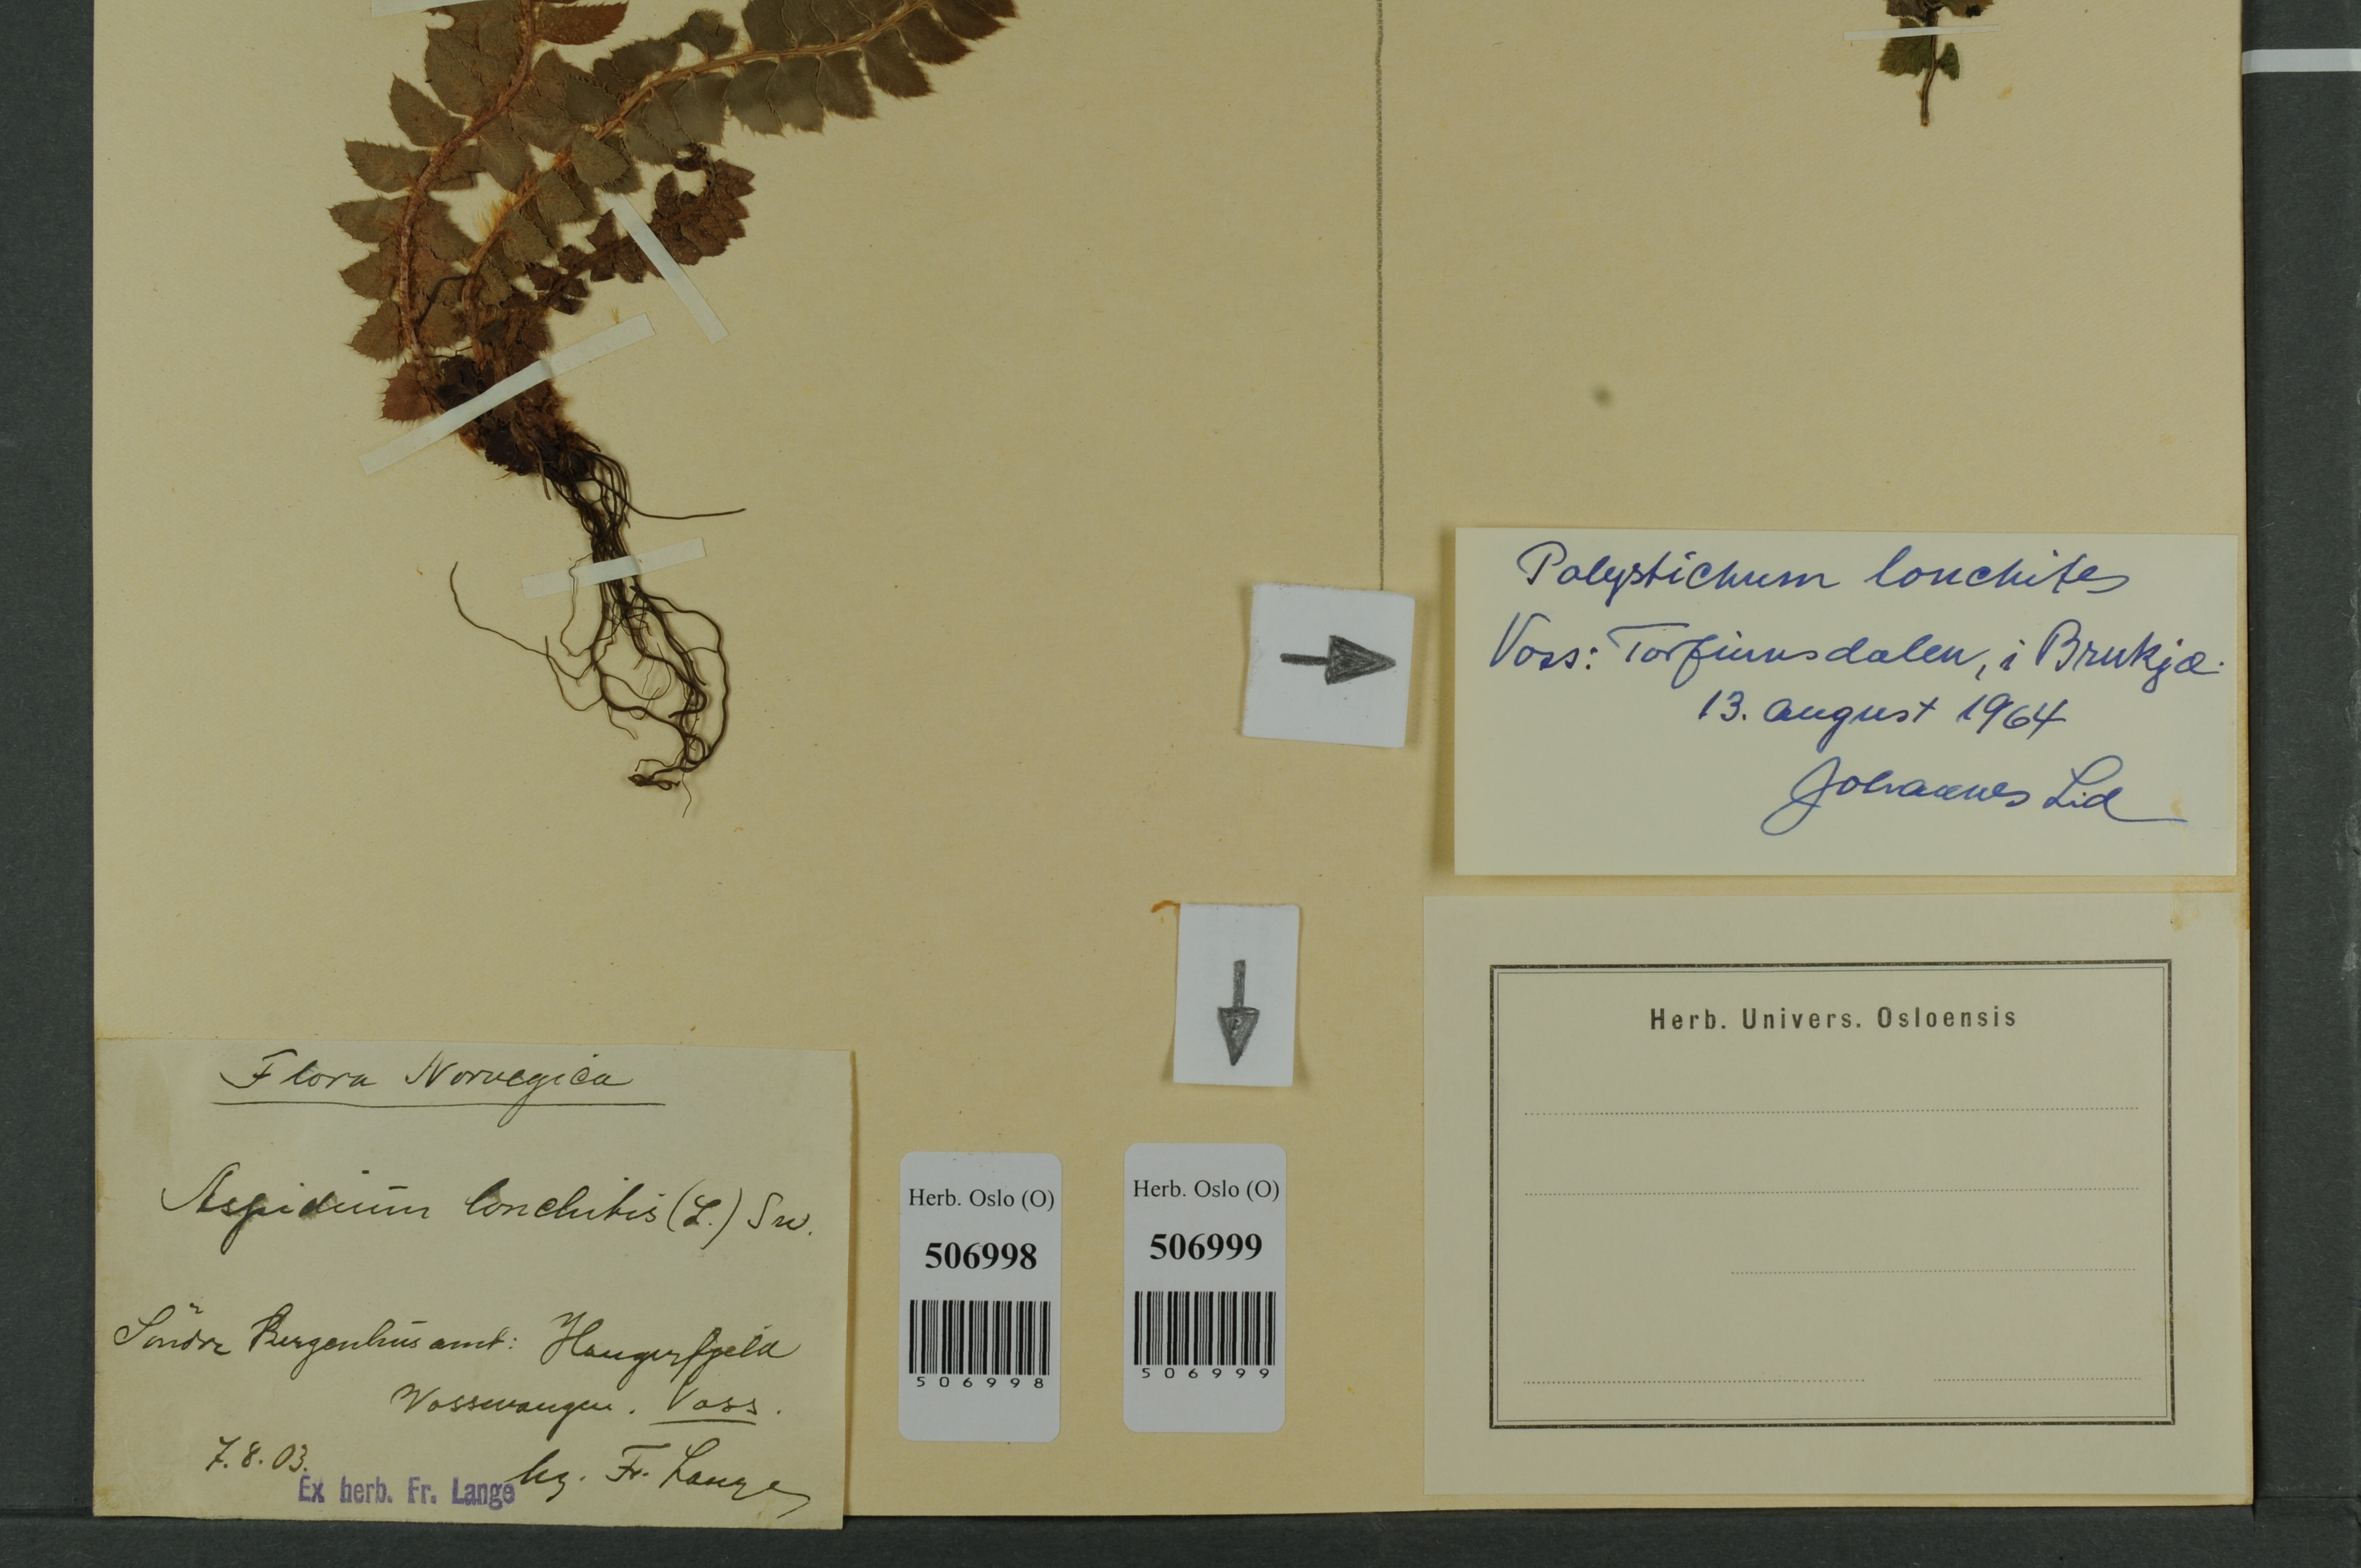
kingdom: Plantae
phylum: Tracheophyta
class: Polypodiopsida
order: Polypodiales
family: Dryopteridaceae
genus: Polystichum
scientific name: Polystichum lonchitis
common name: Holly fern
